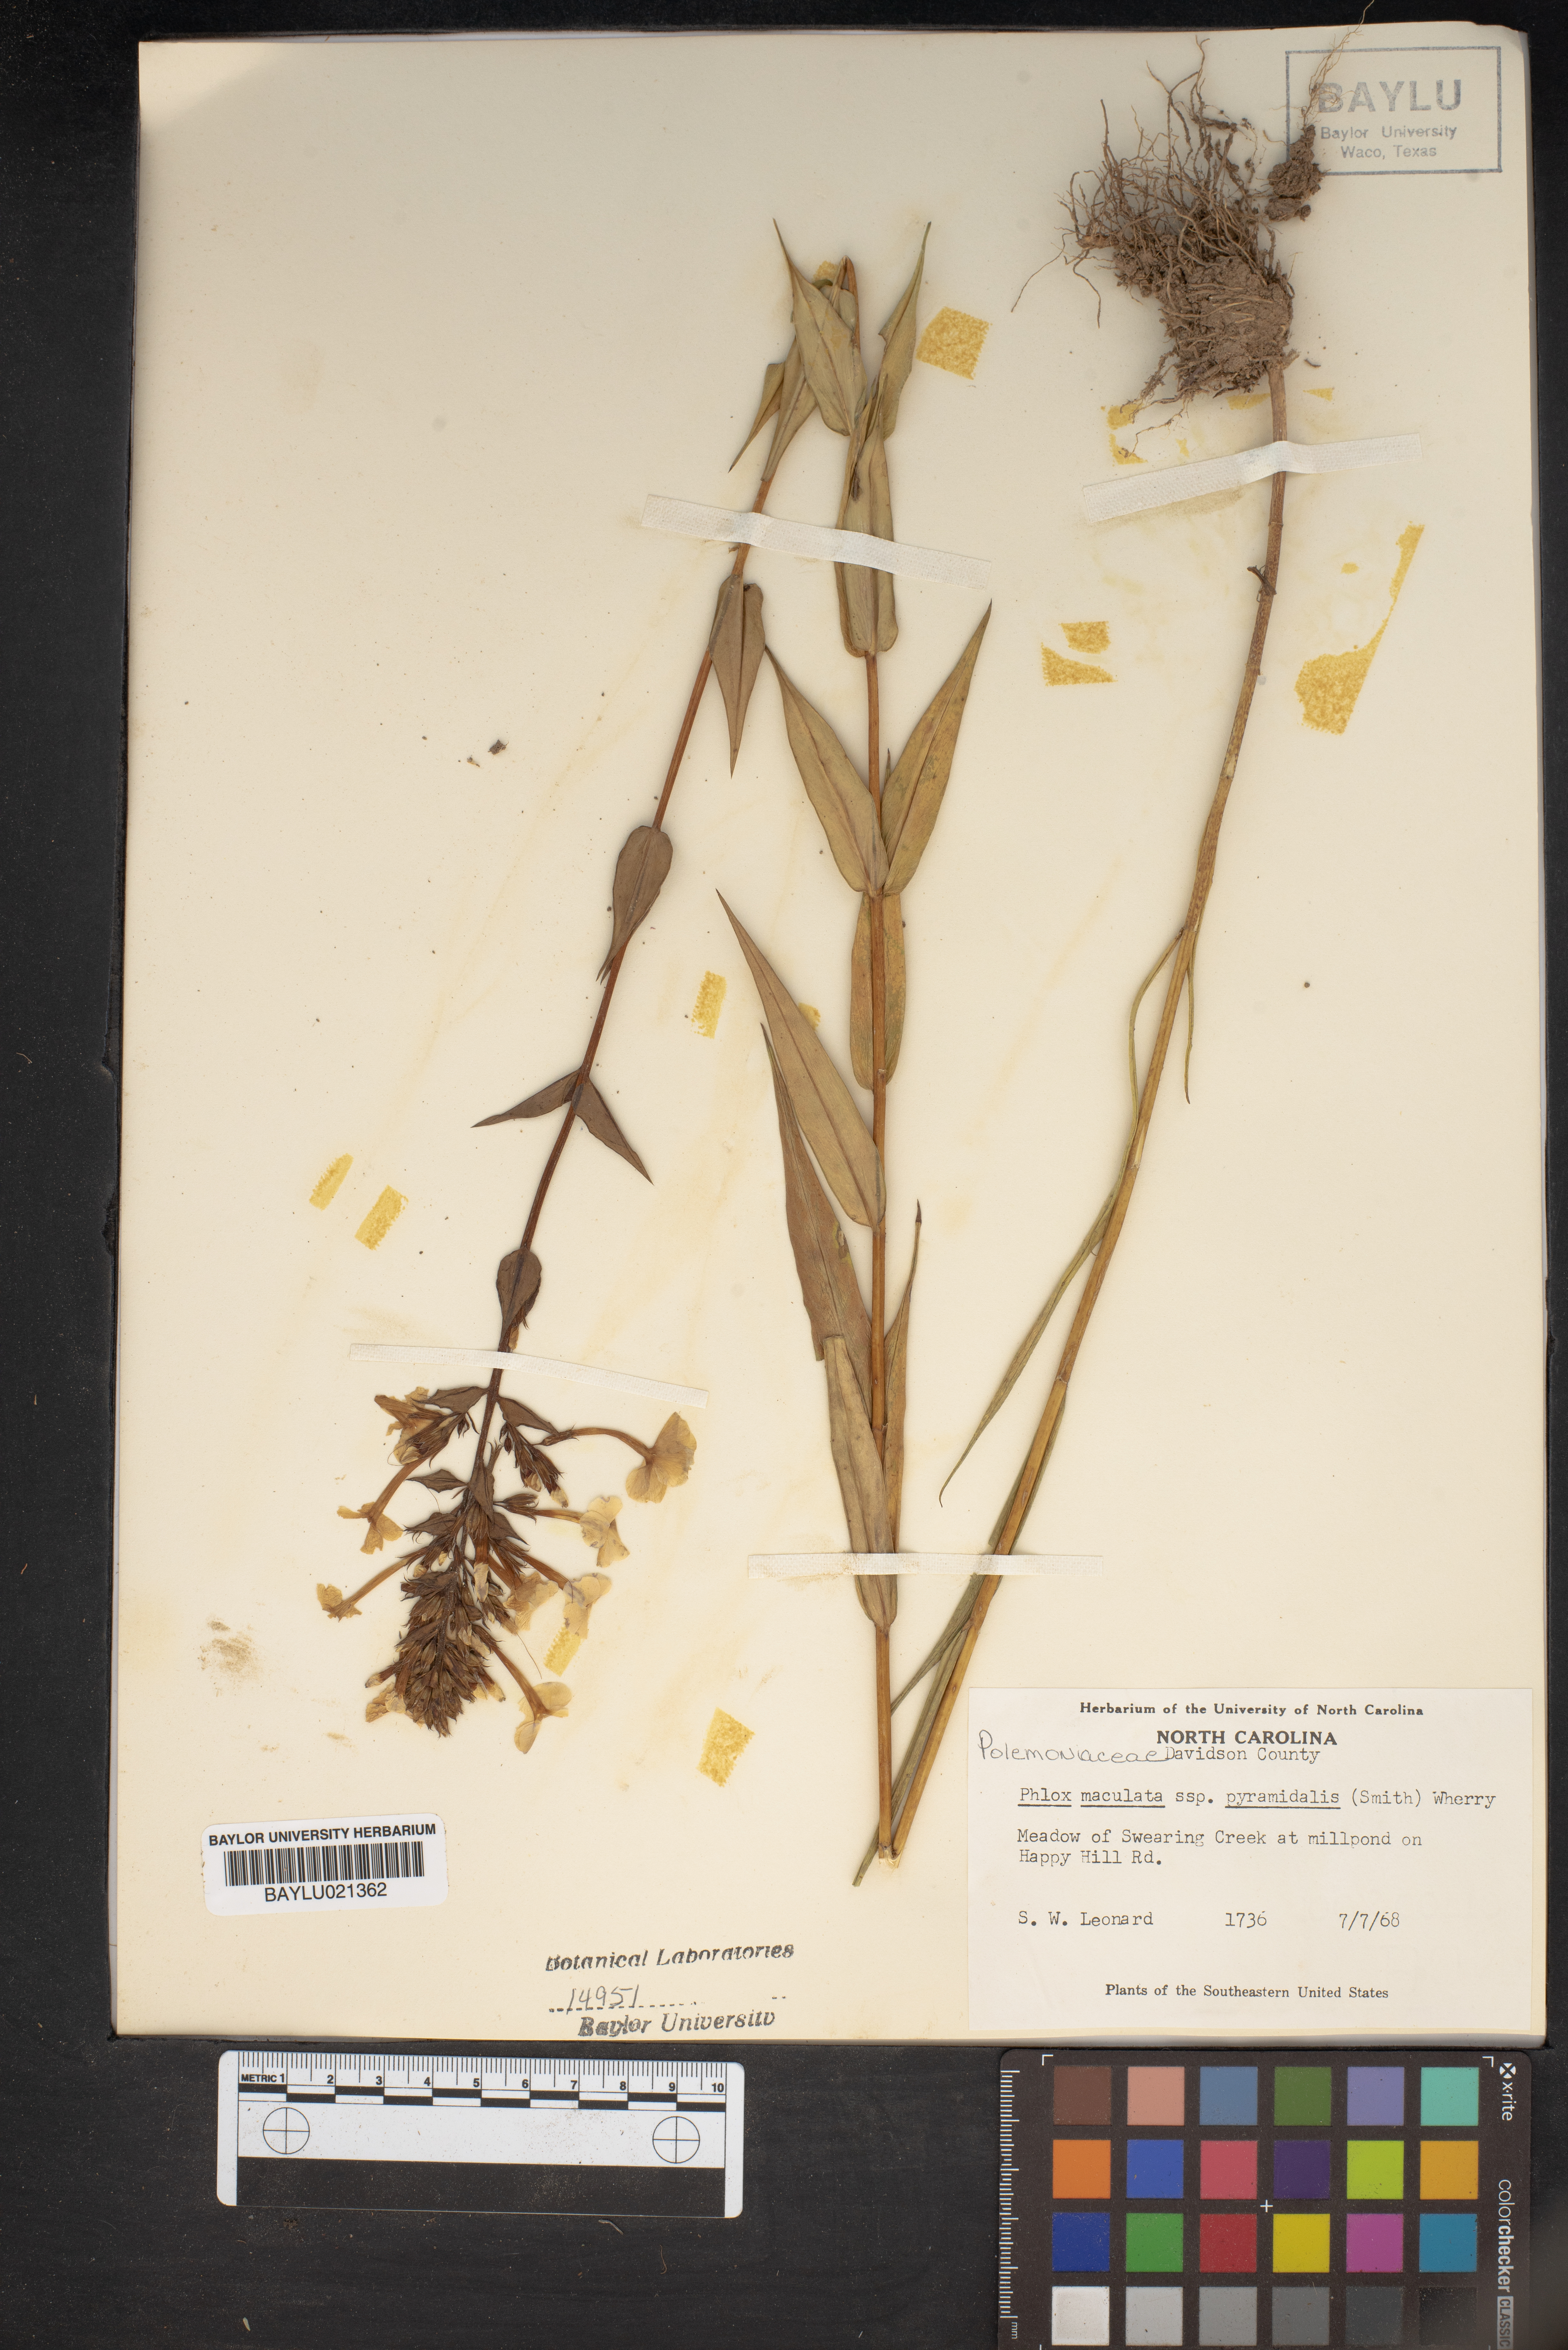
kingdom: Plantae
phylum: Tracheophyta
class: Magnoliopsida
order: Ericales
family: Polemoniaceae
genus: Phlox
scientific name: Phlox maculata
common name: Meadow phlox
